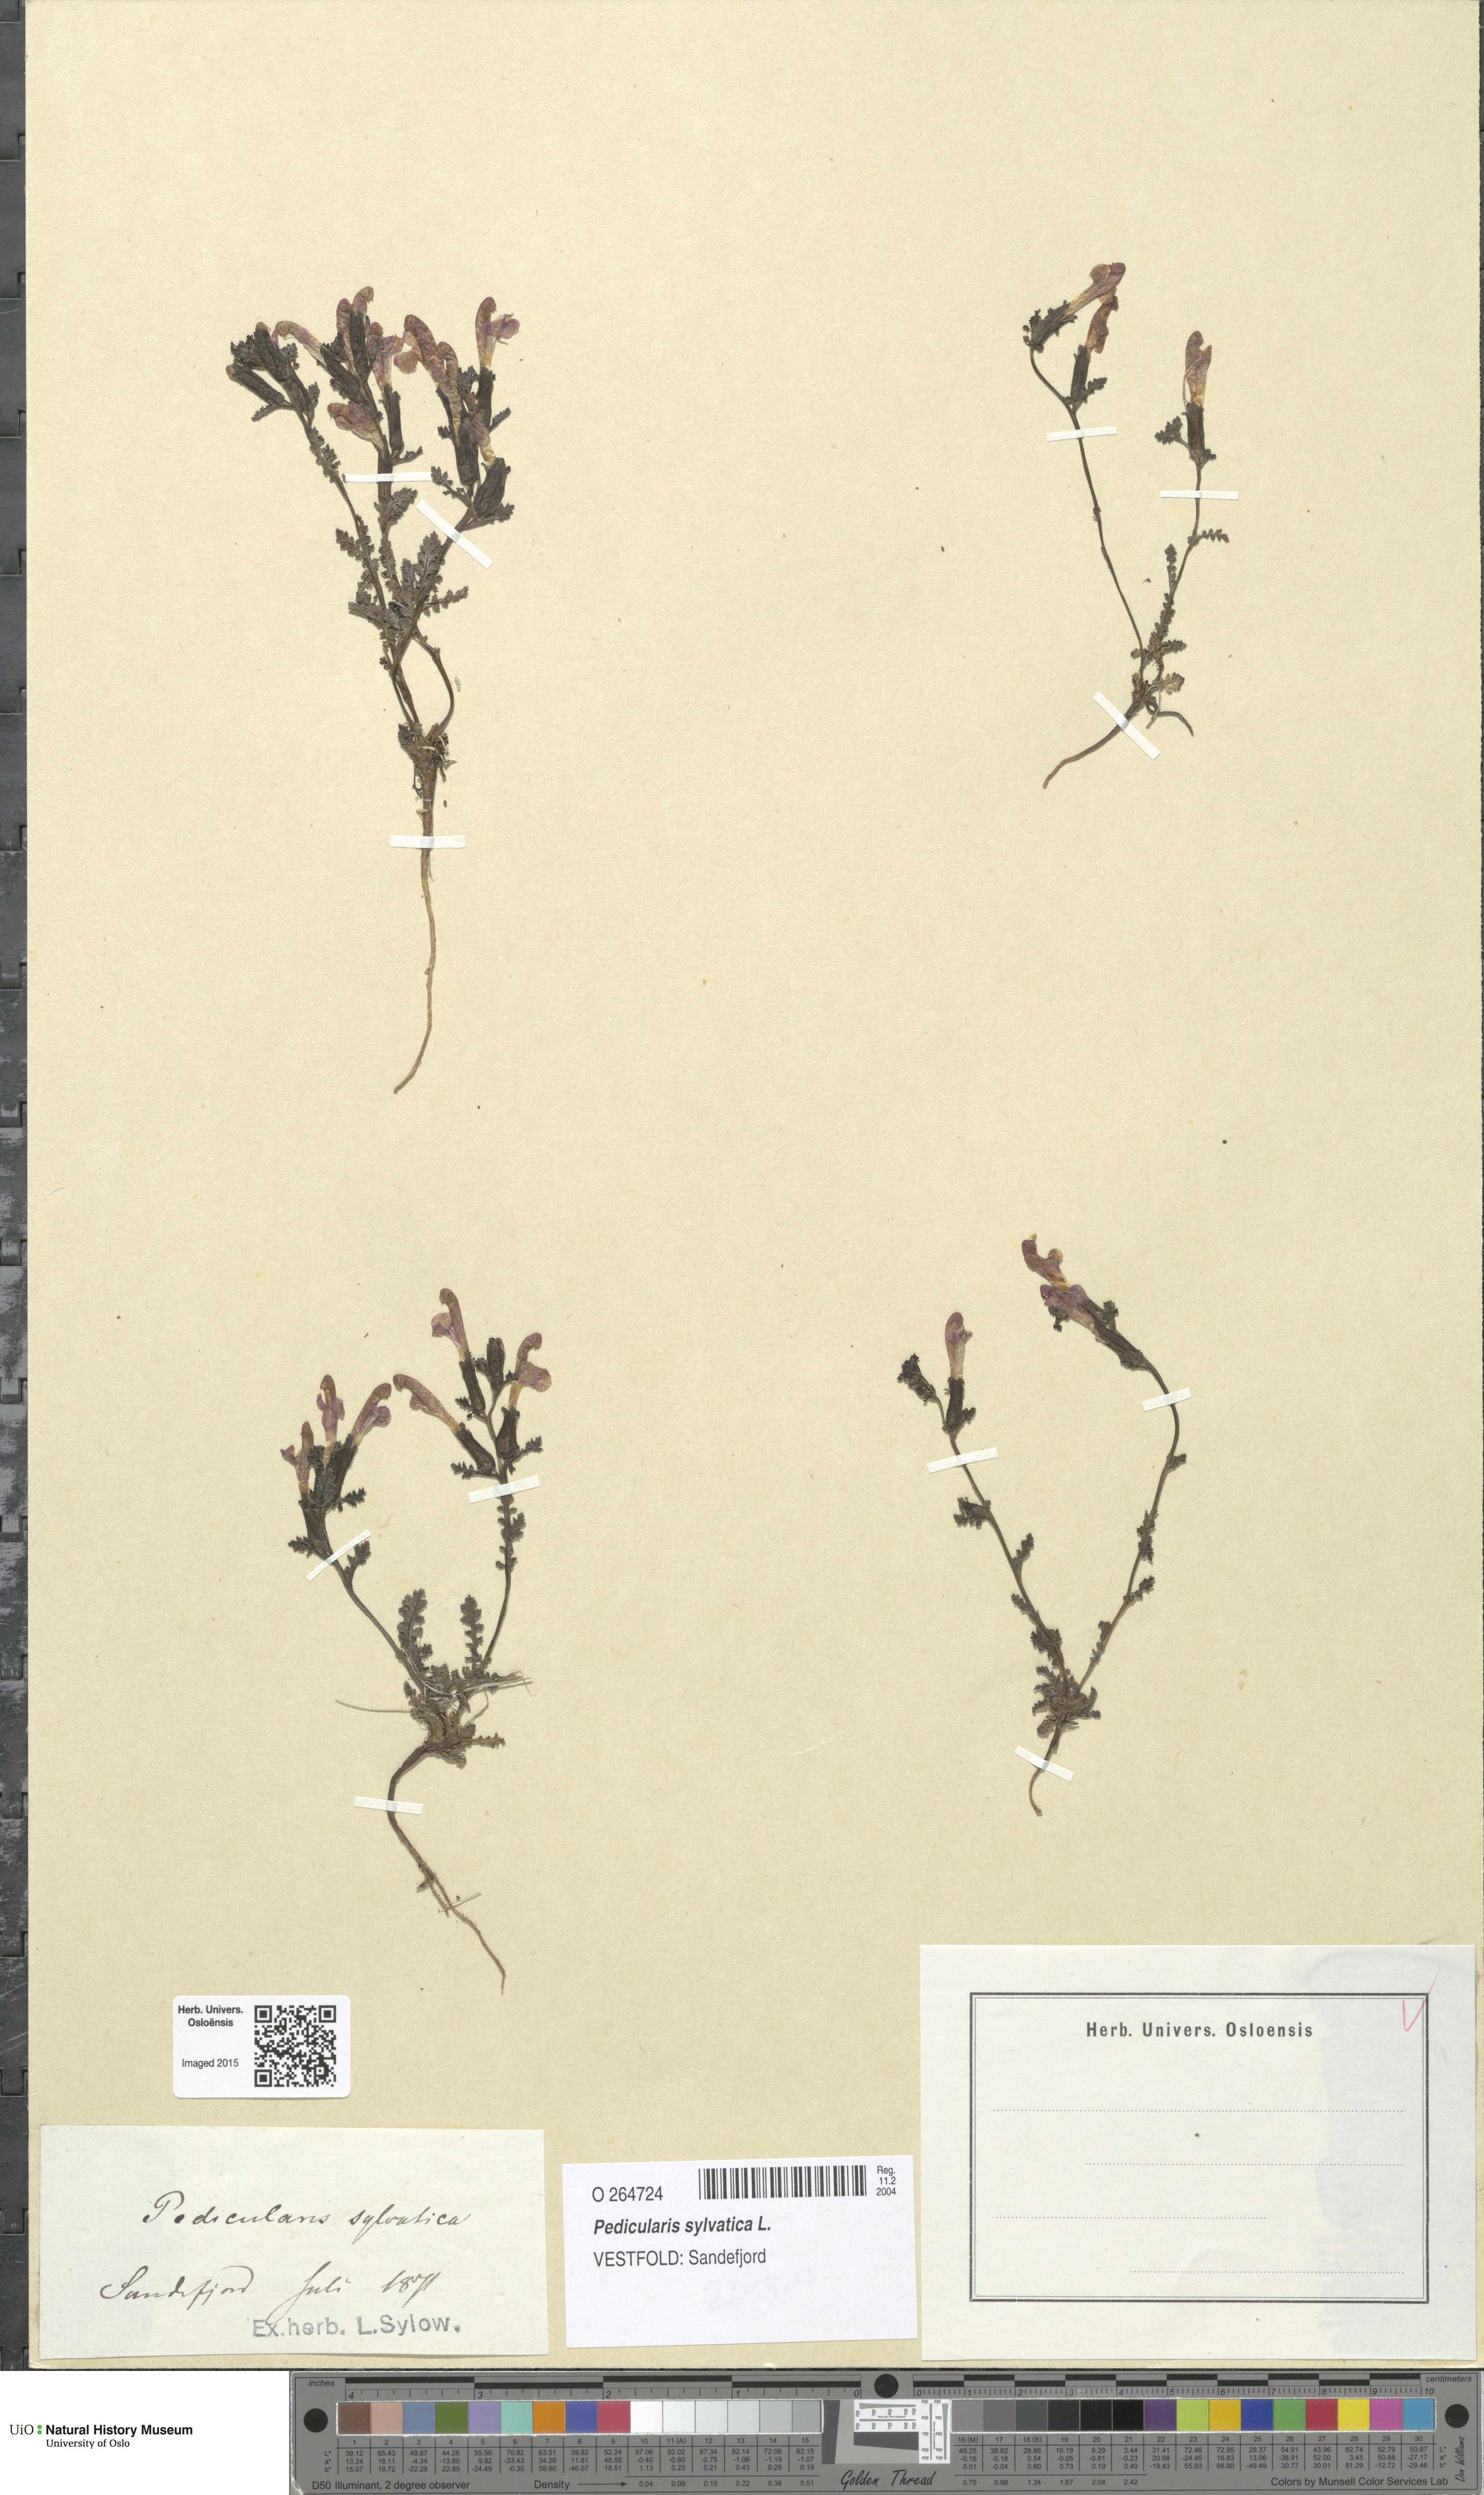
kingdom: Plantae
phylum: Tracheophyta
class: Magnoliopsida
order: Lamiales
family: Orobanchaceae
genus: Pedicularis
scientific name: Pedicularis sylvatica
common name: Lousewort
